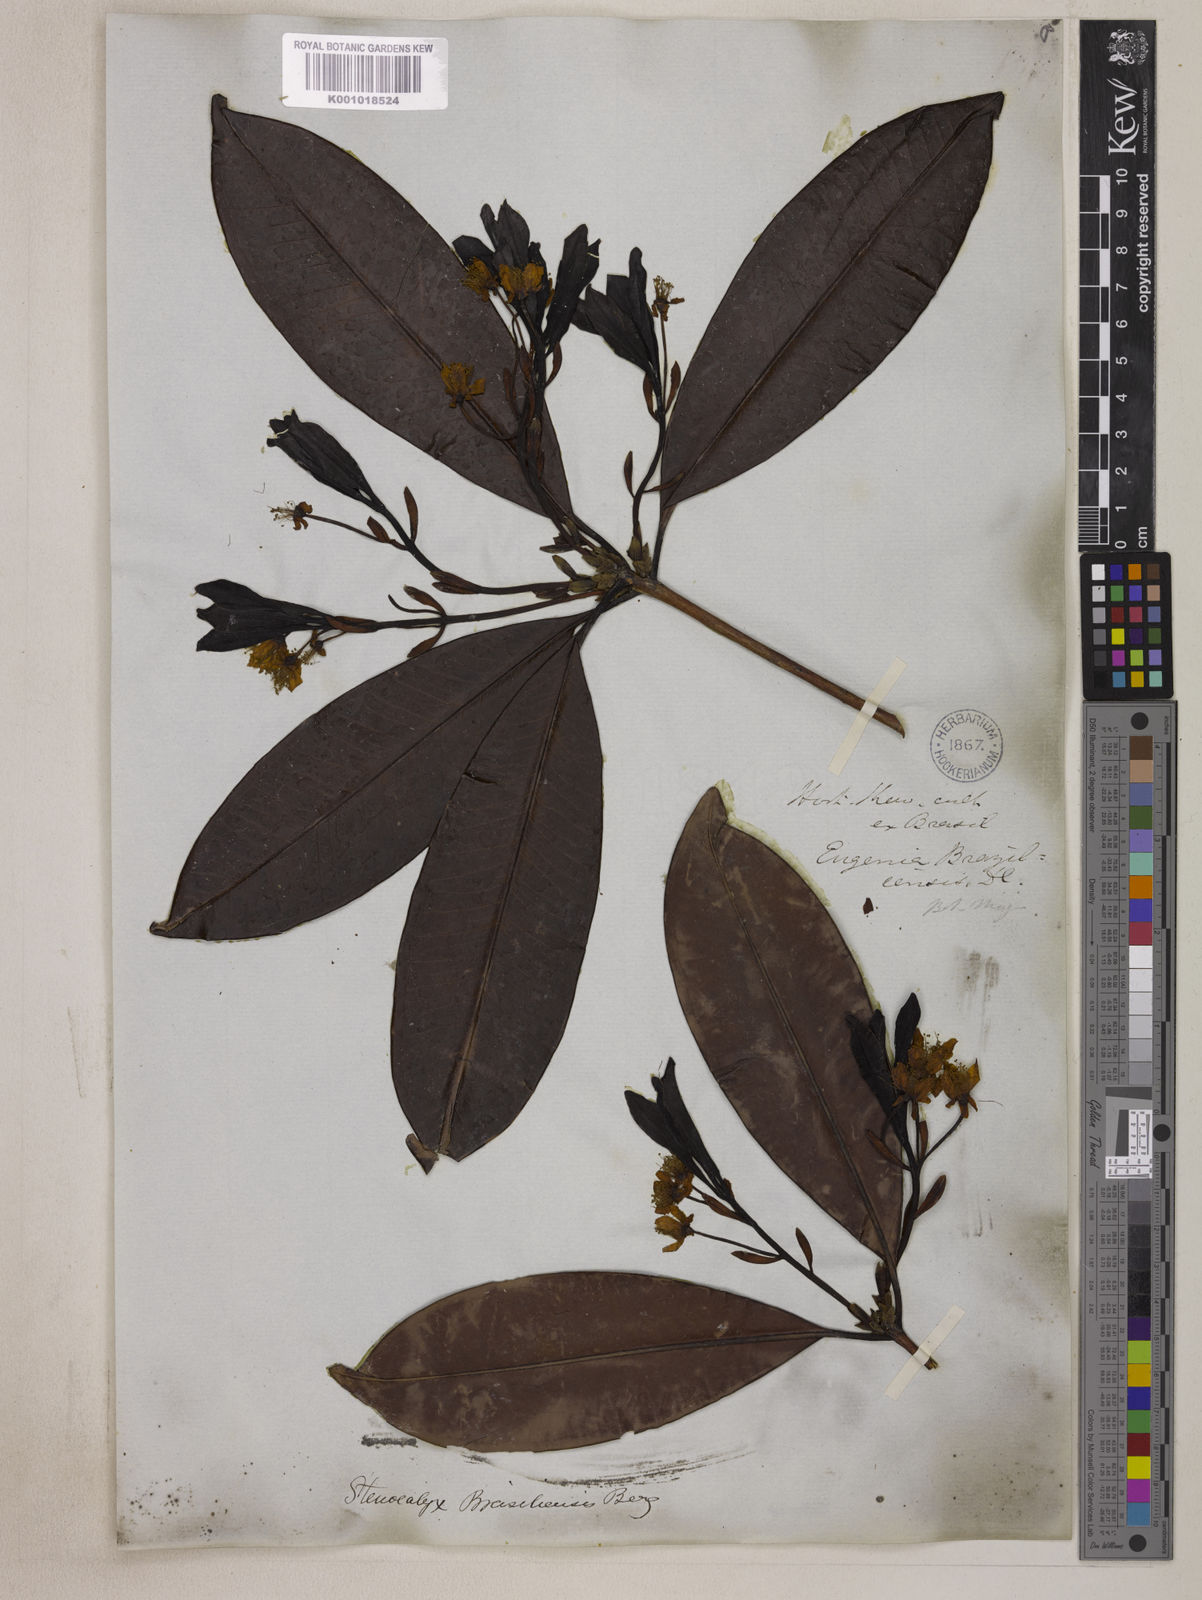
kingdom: Plantae
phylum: Tracheophyta
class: Magnoliopsida
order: Myrtales
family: Myrtaceae
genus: Eugenia
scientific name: Eugenia brasiliensis
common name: Grumichama
